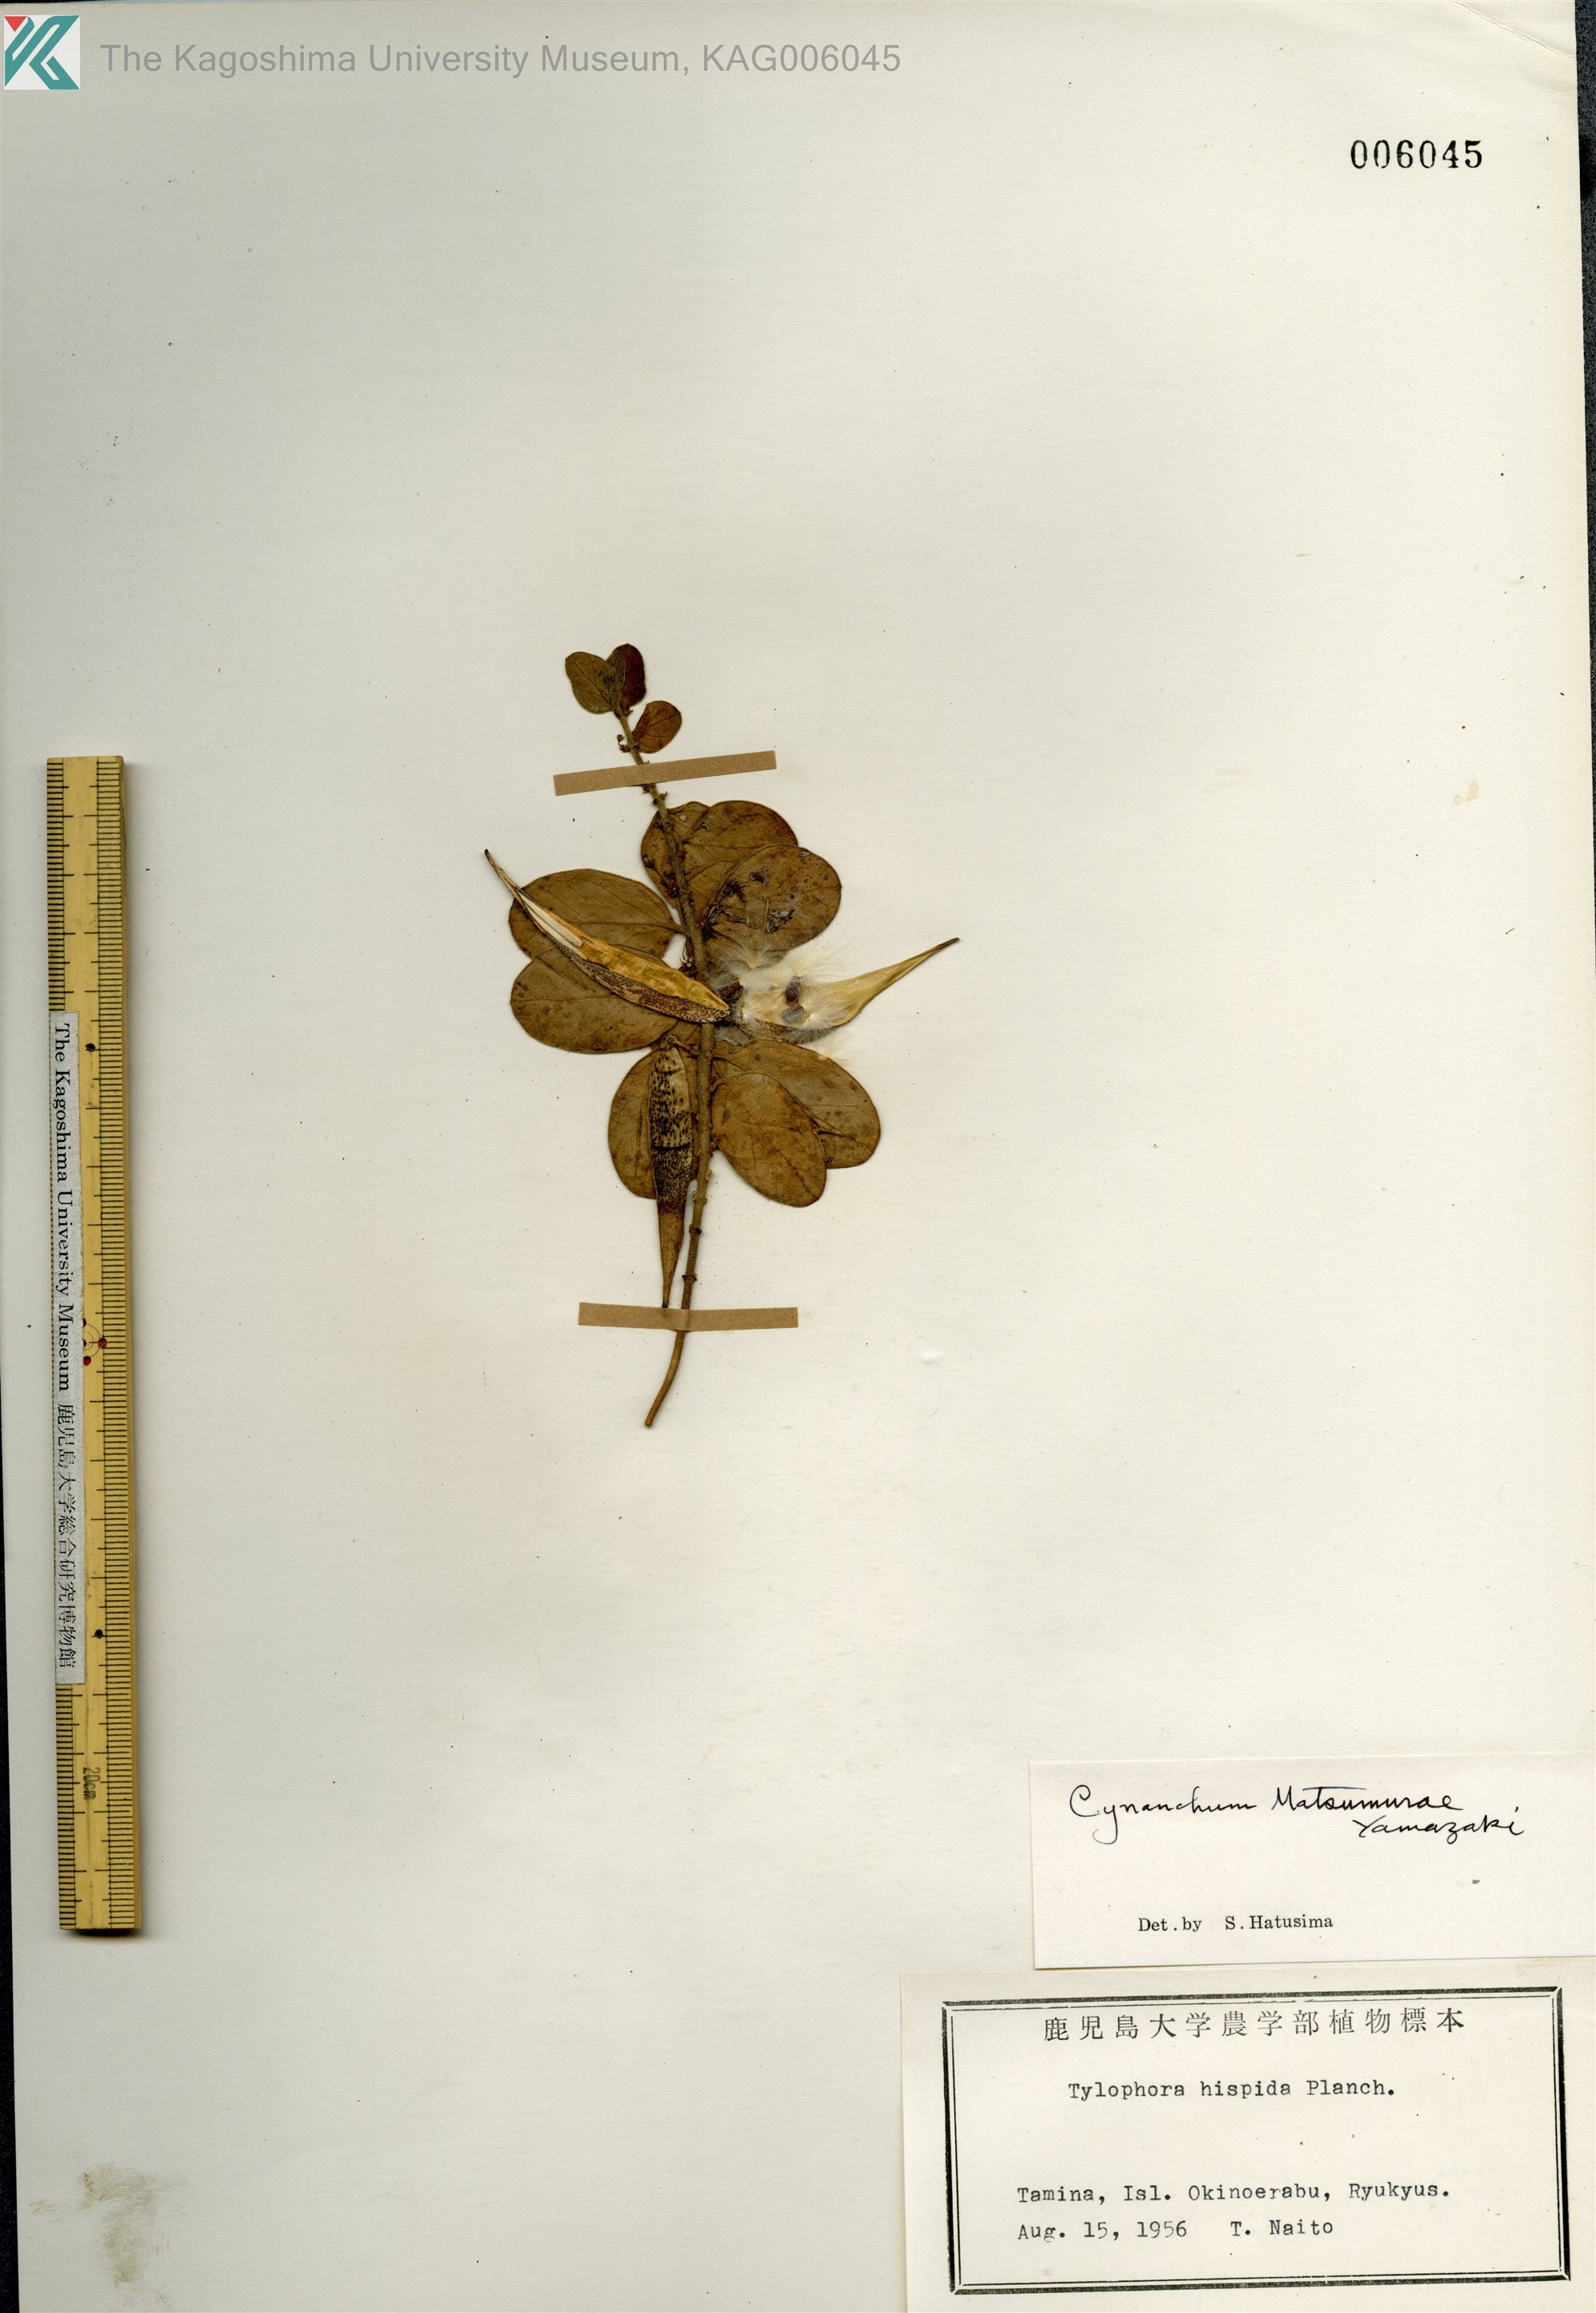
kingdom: Plantae
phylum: Tracheophyta
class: Magnoliopsida
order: Gentianales
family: Apocynaceae
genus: Vincetoxicum
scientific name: Vincetoxicum matsumurae
